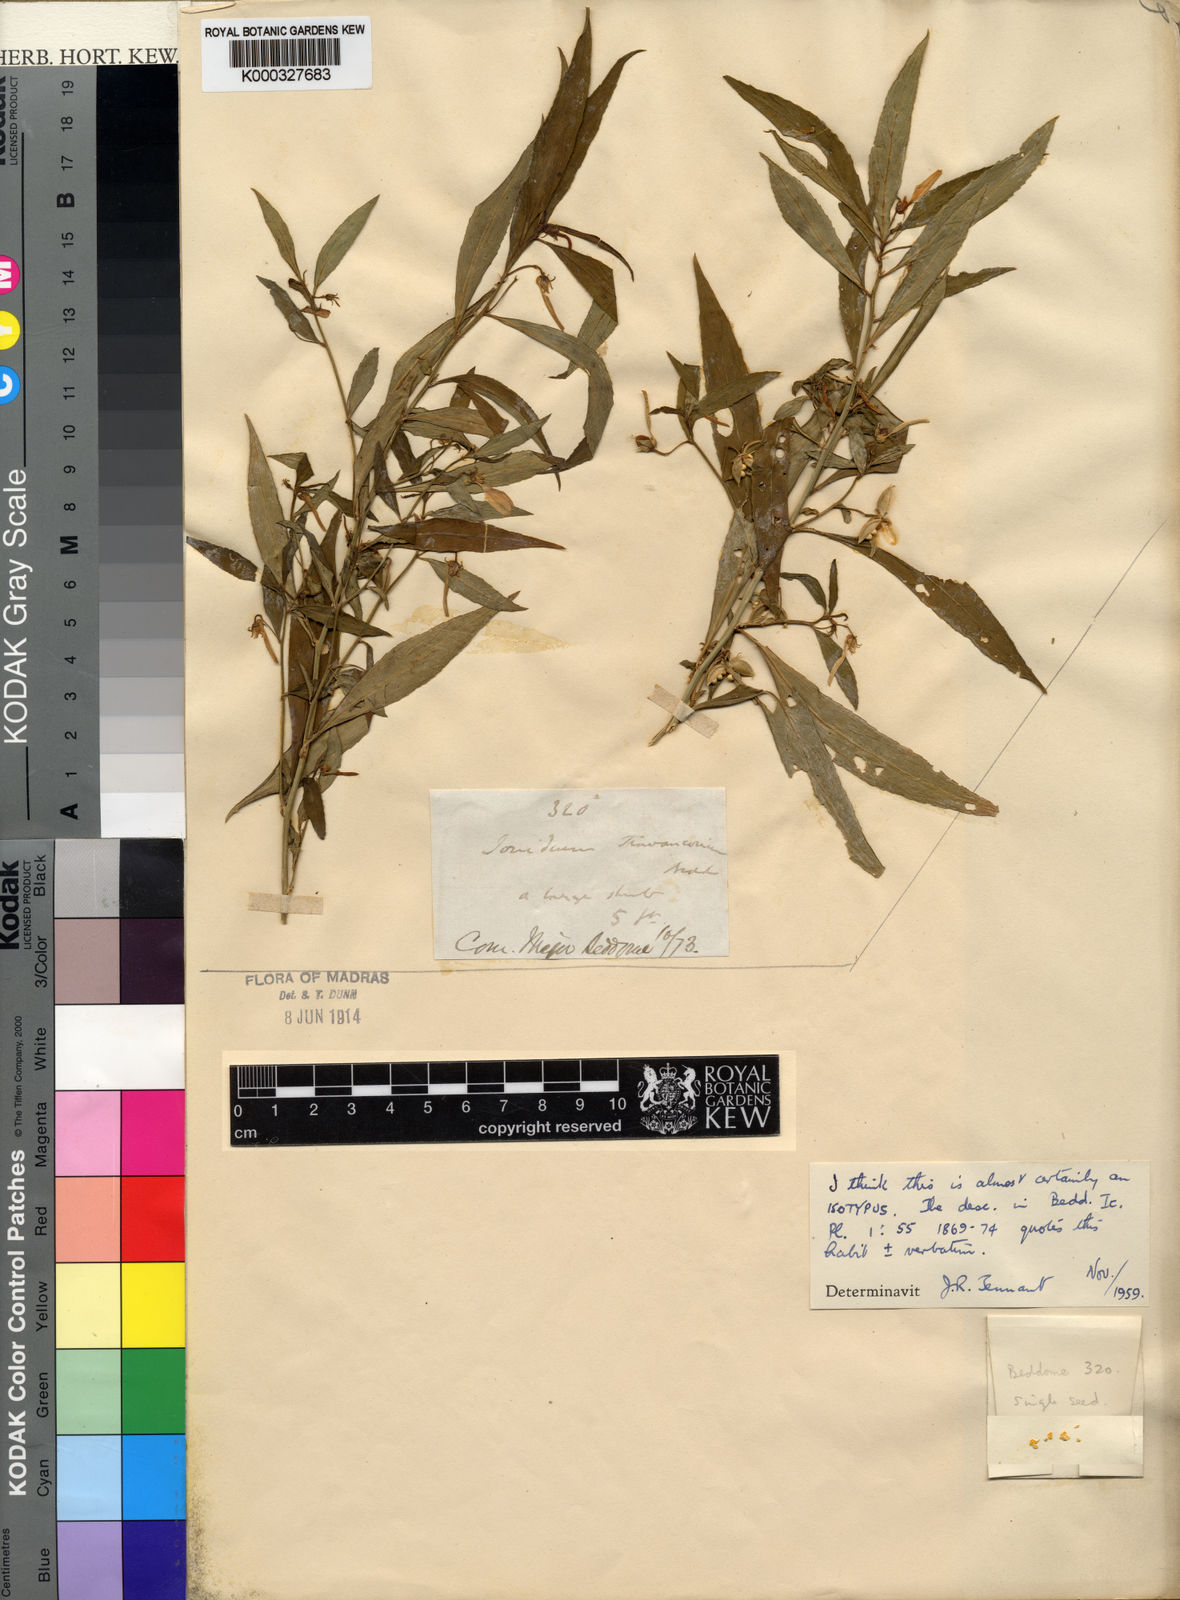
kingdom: Plantae
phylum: Tracheophyta
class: Magnoliopsida
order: Malpighiales
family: Violaceae
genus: Pigea
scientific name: Pigea travancorica
